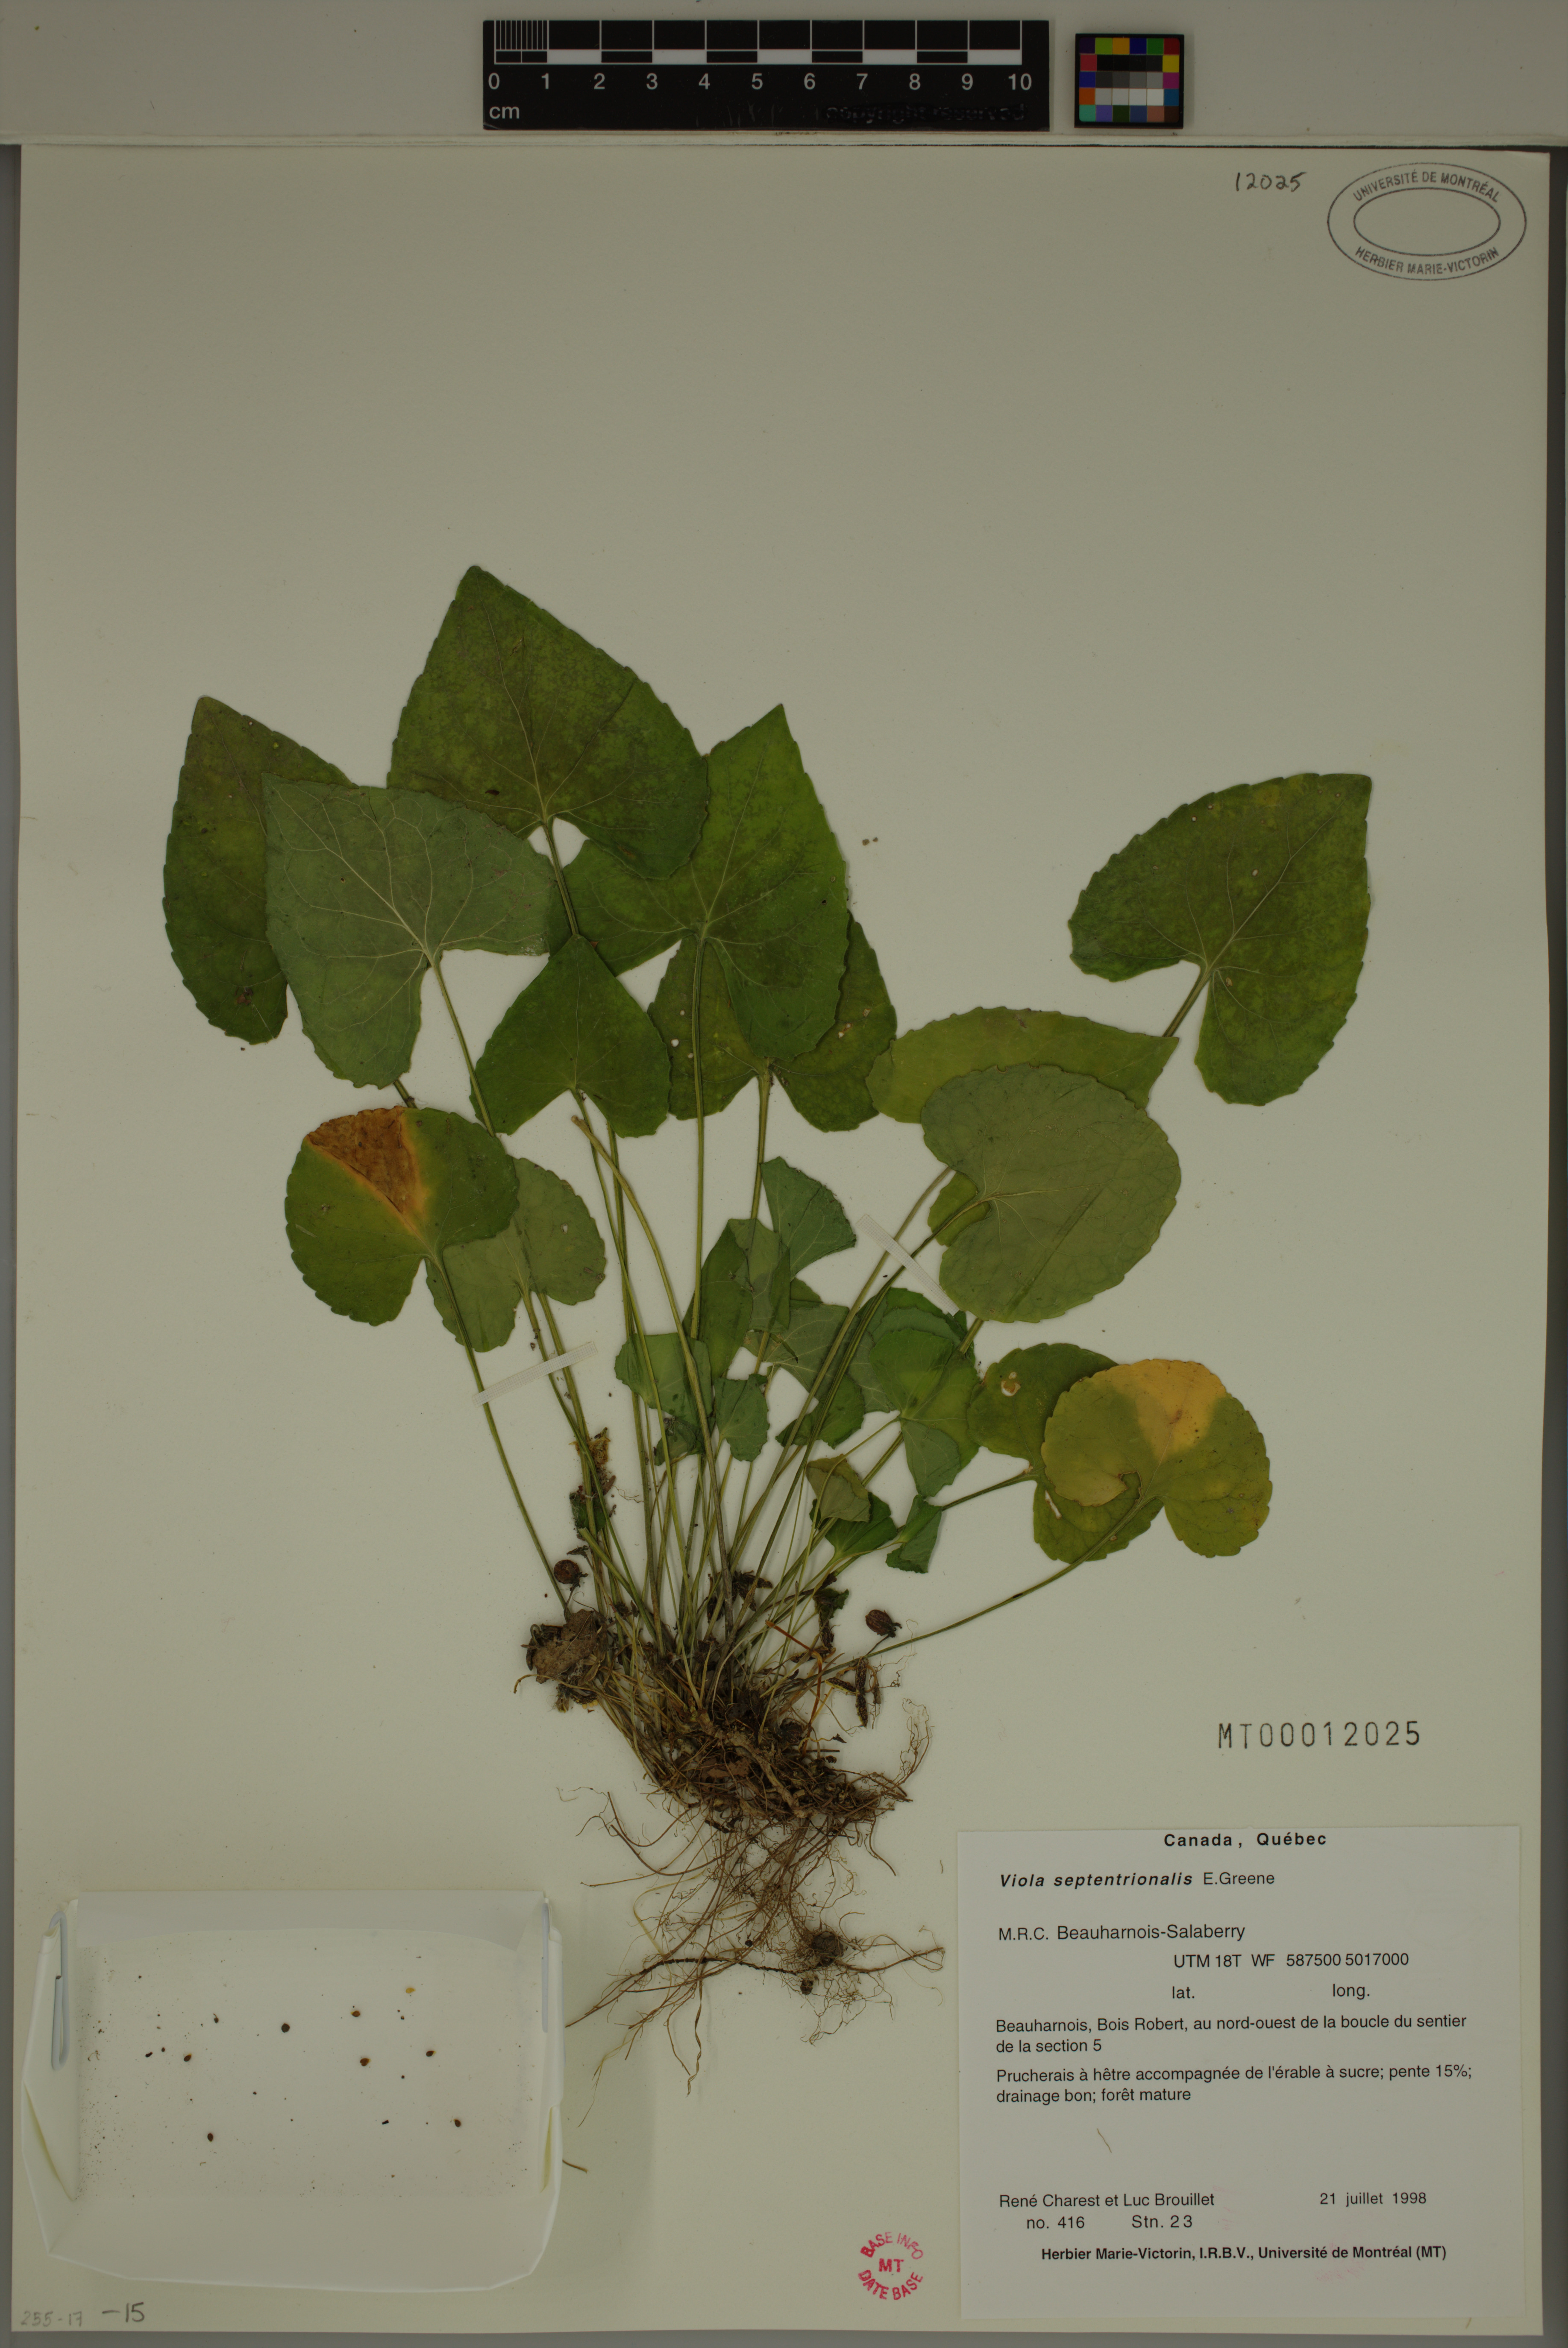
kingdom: Plantae
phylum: Tracheophyta
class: Magnoliopsida
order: Malpighiales
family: Violaceae
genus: Viola
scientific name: Viola sororia
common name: Dooryard violet
